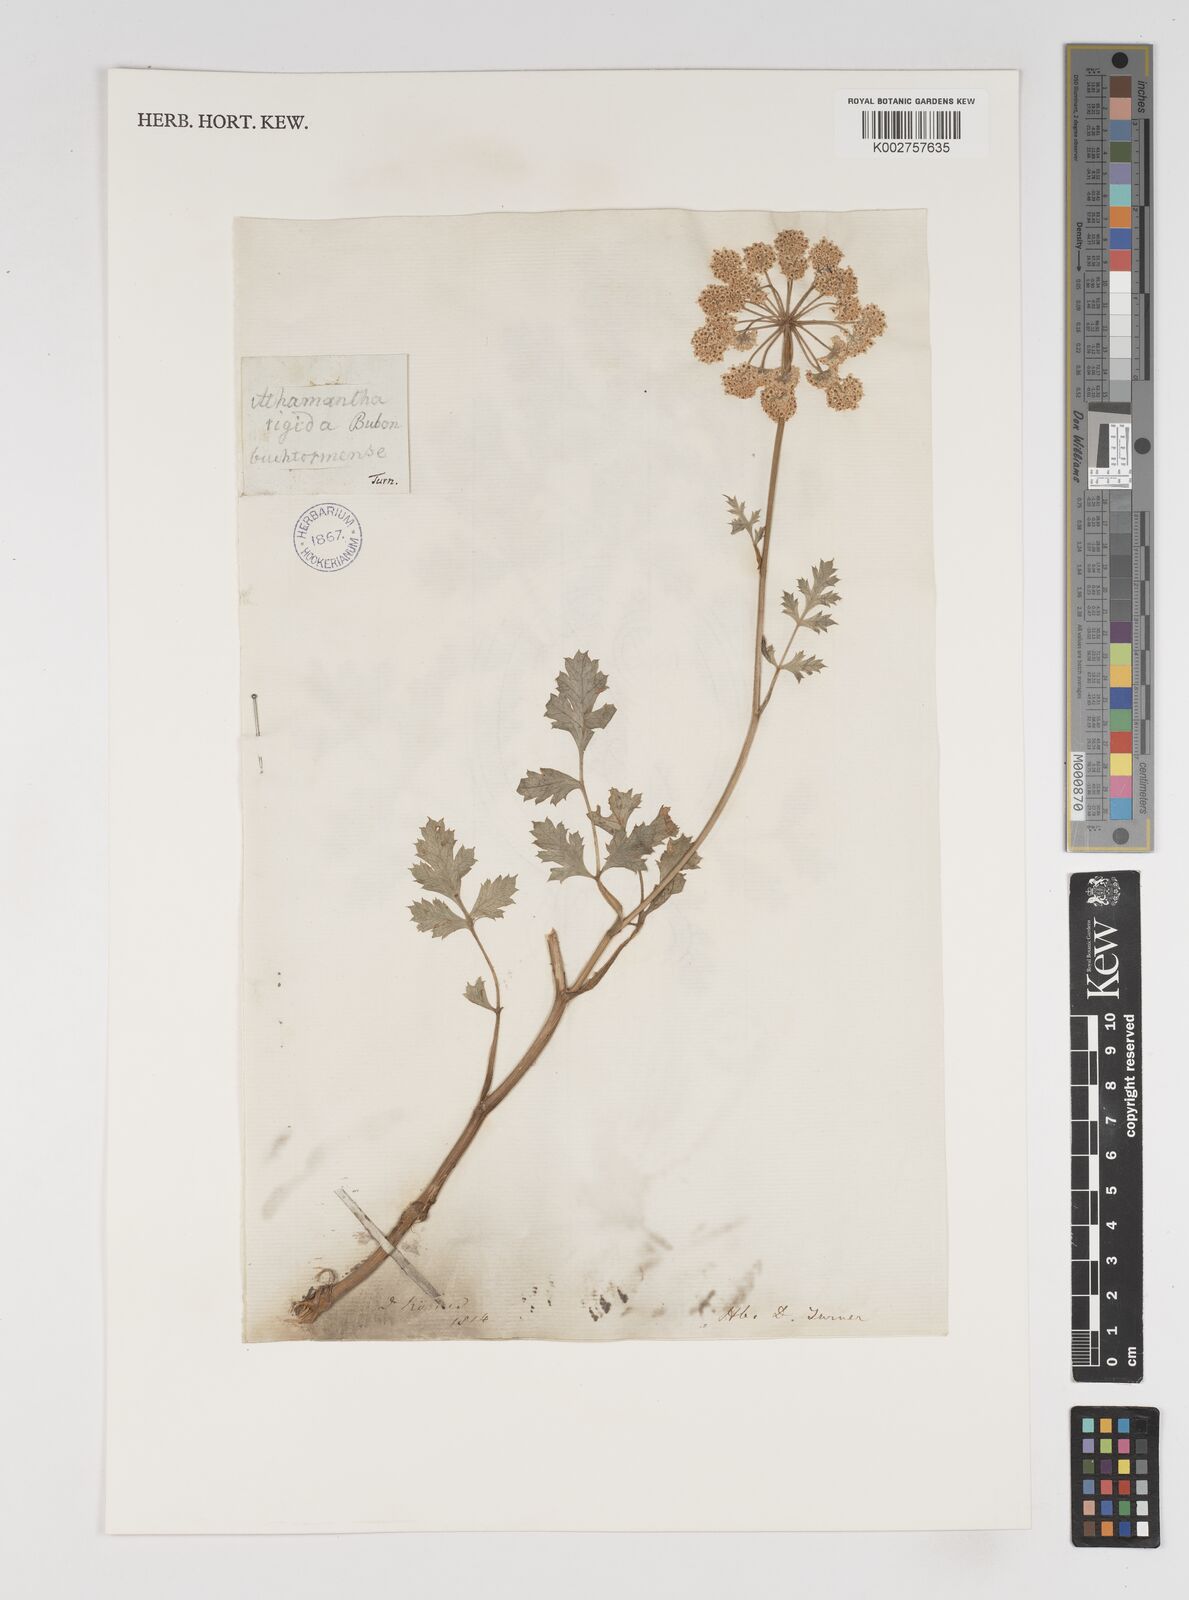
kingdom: Plantae
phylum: Tracheophyta
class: Magnoliopsida
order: Apiales
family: Apiaceae
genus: Seseli
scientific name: Seseli buchtormense
